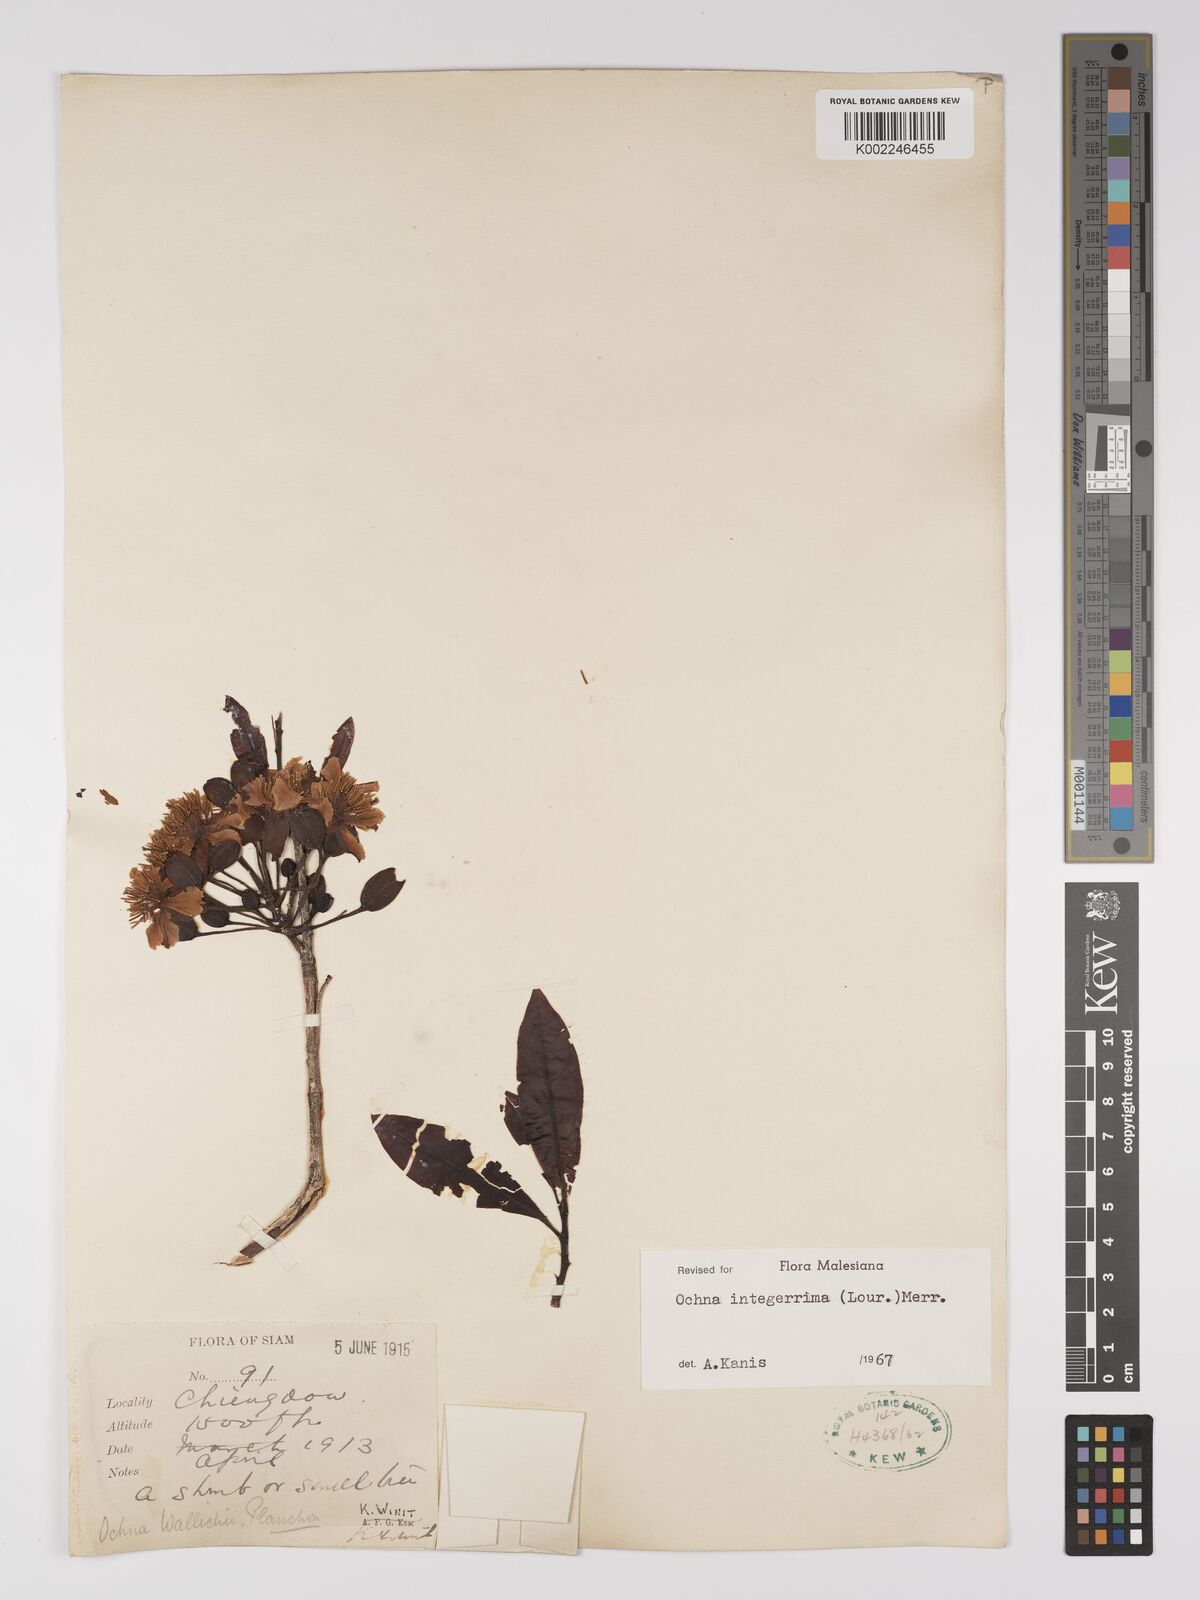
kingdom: Plantae
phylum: Tracheophyta
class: Magnoliopsida
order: Malpighiales
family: Ochnaceae
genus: Ochna
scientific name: Ochna integerrima
